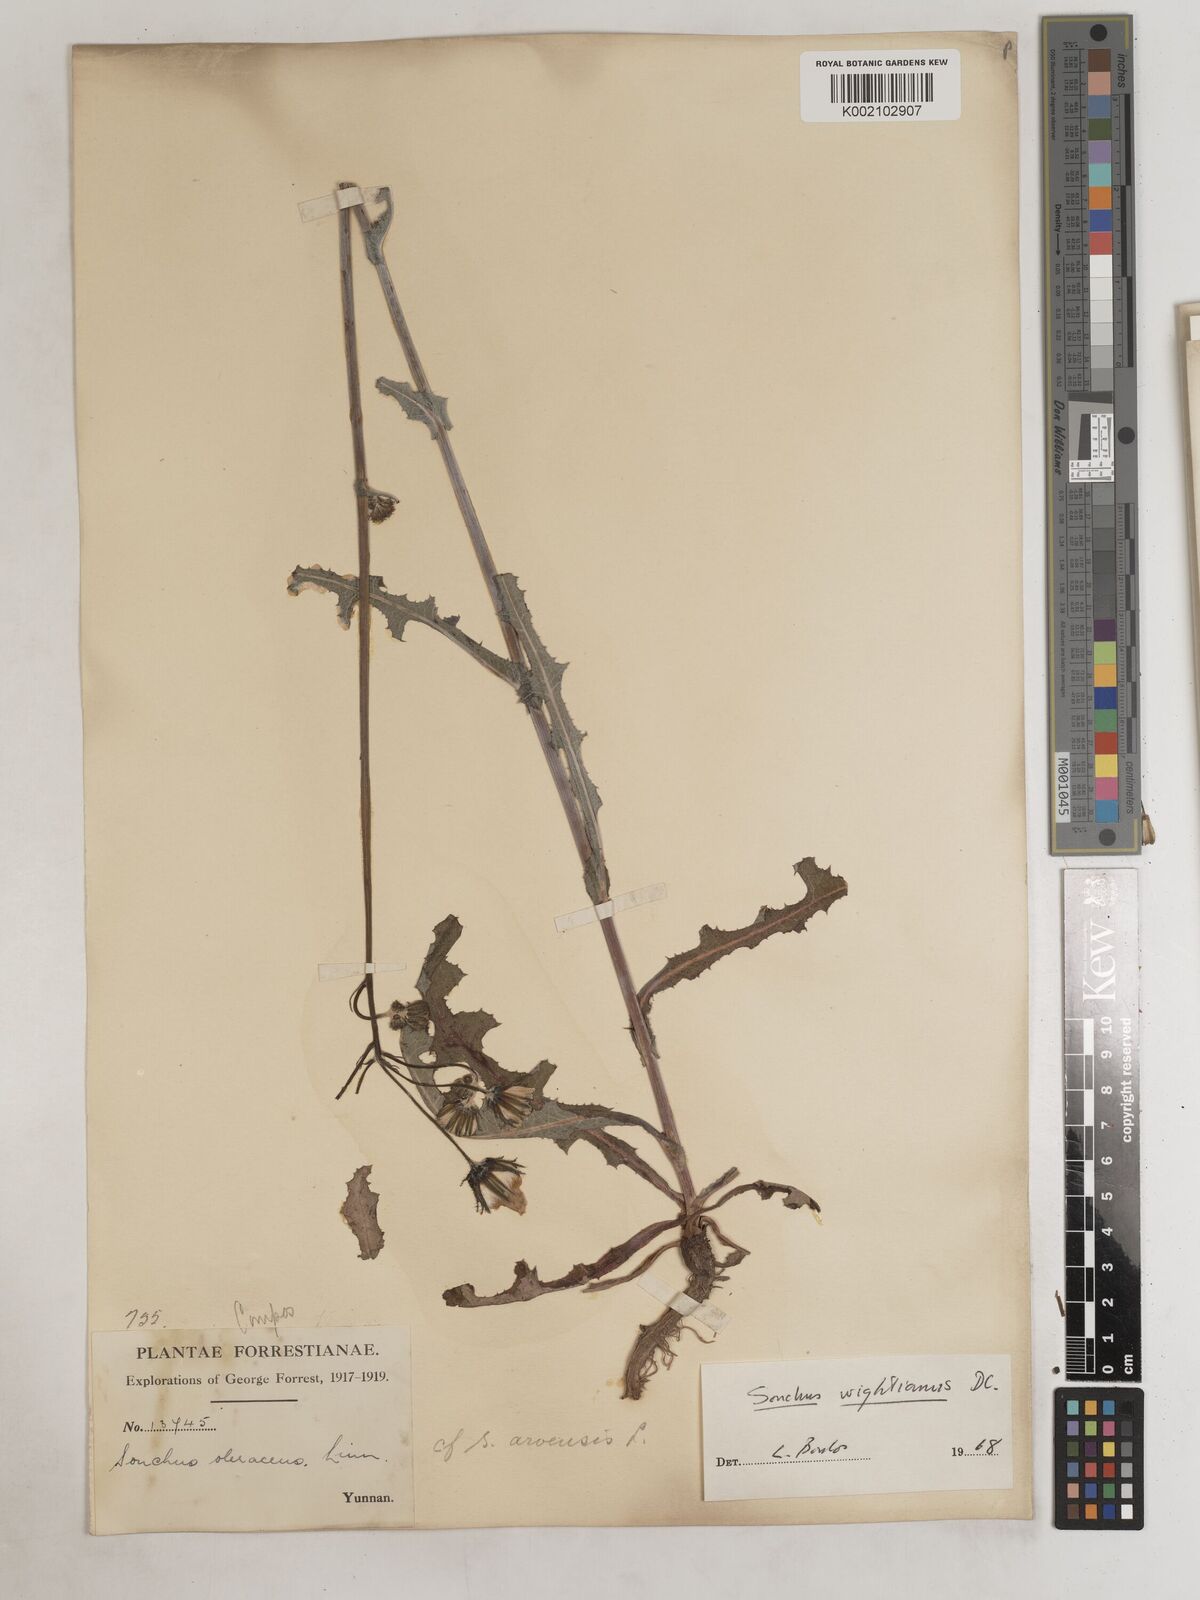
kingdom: Plantae
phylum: Tracheophyta
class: Magnoliopsida
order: Asterales
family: Asteraceae
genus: Sonchus
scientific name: Sonchus wightianus
